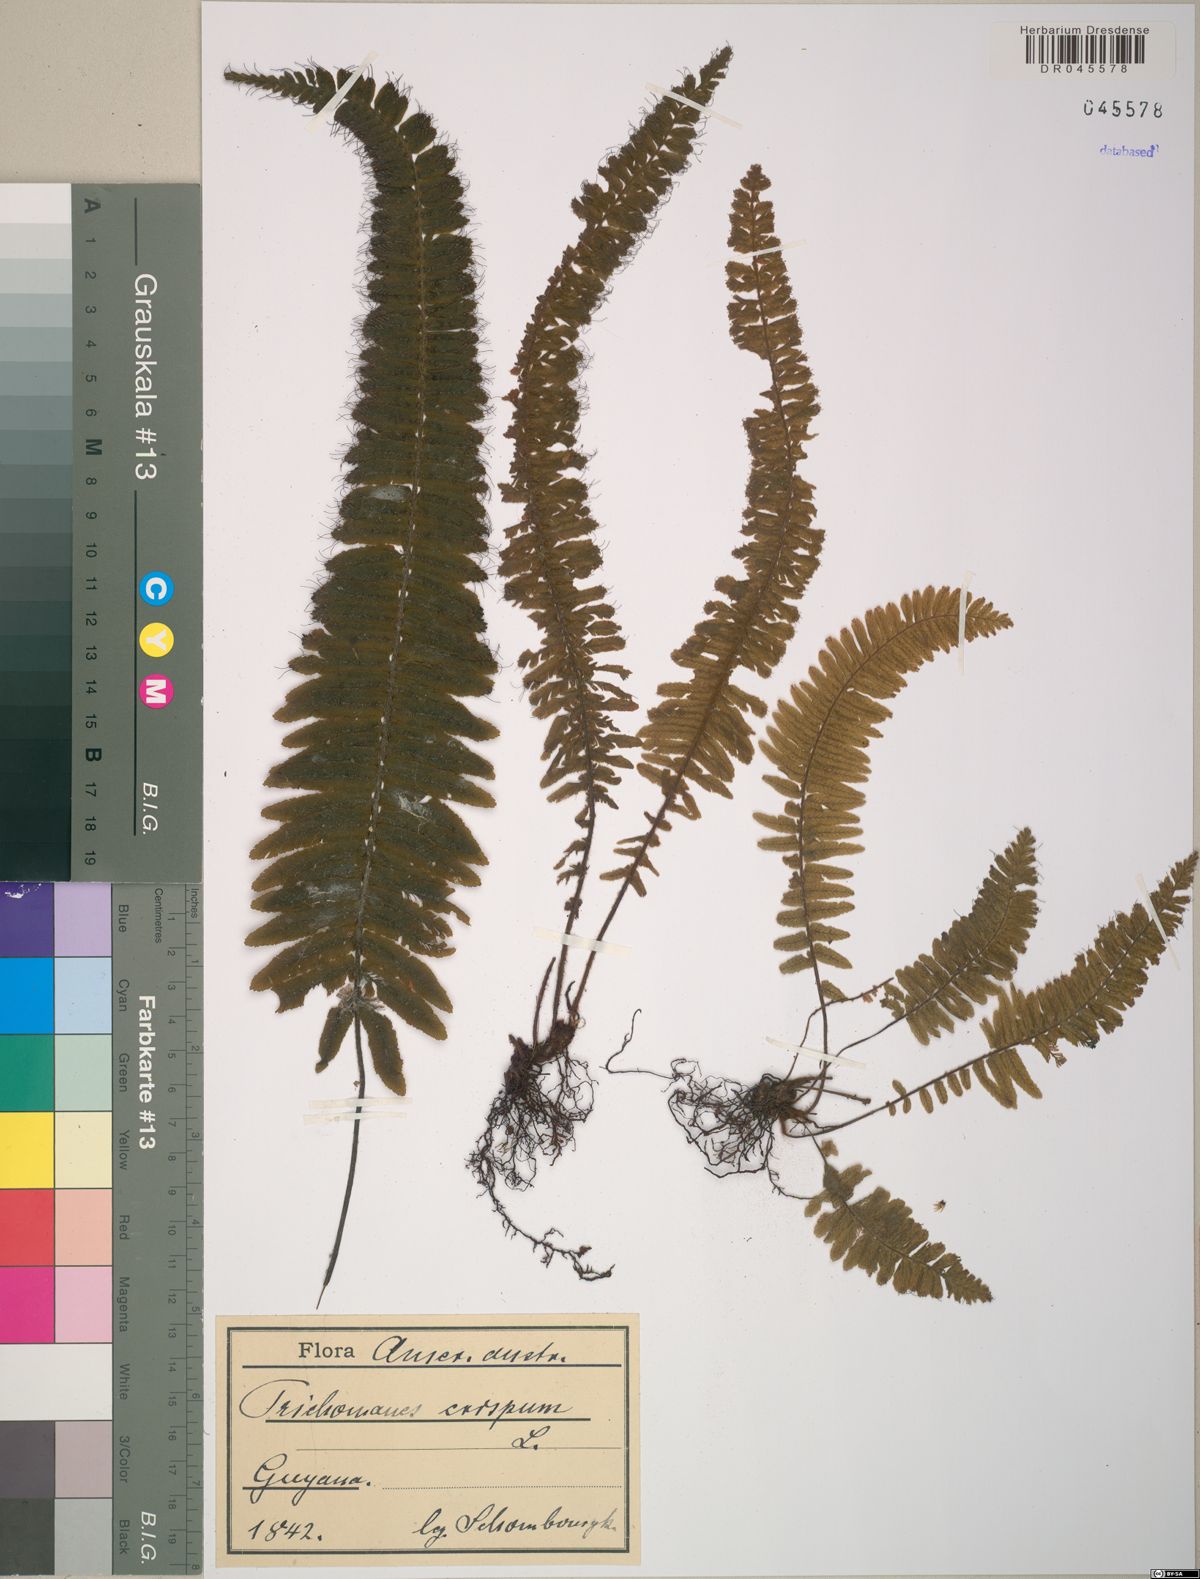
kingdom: Plantae
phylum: Tracheophyta
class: Polypodiopsida
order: Hymenophyllales
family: Hymenophyllaceae
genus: Trichomanes
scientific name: Trichomanes crispum
